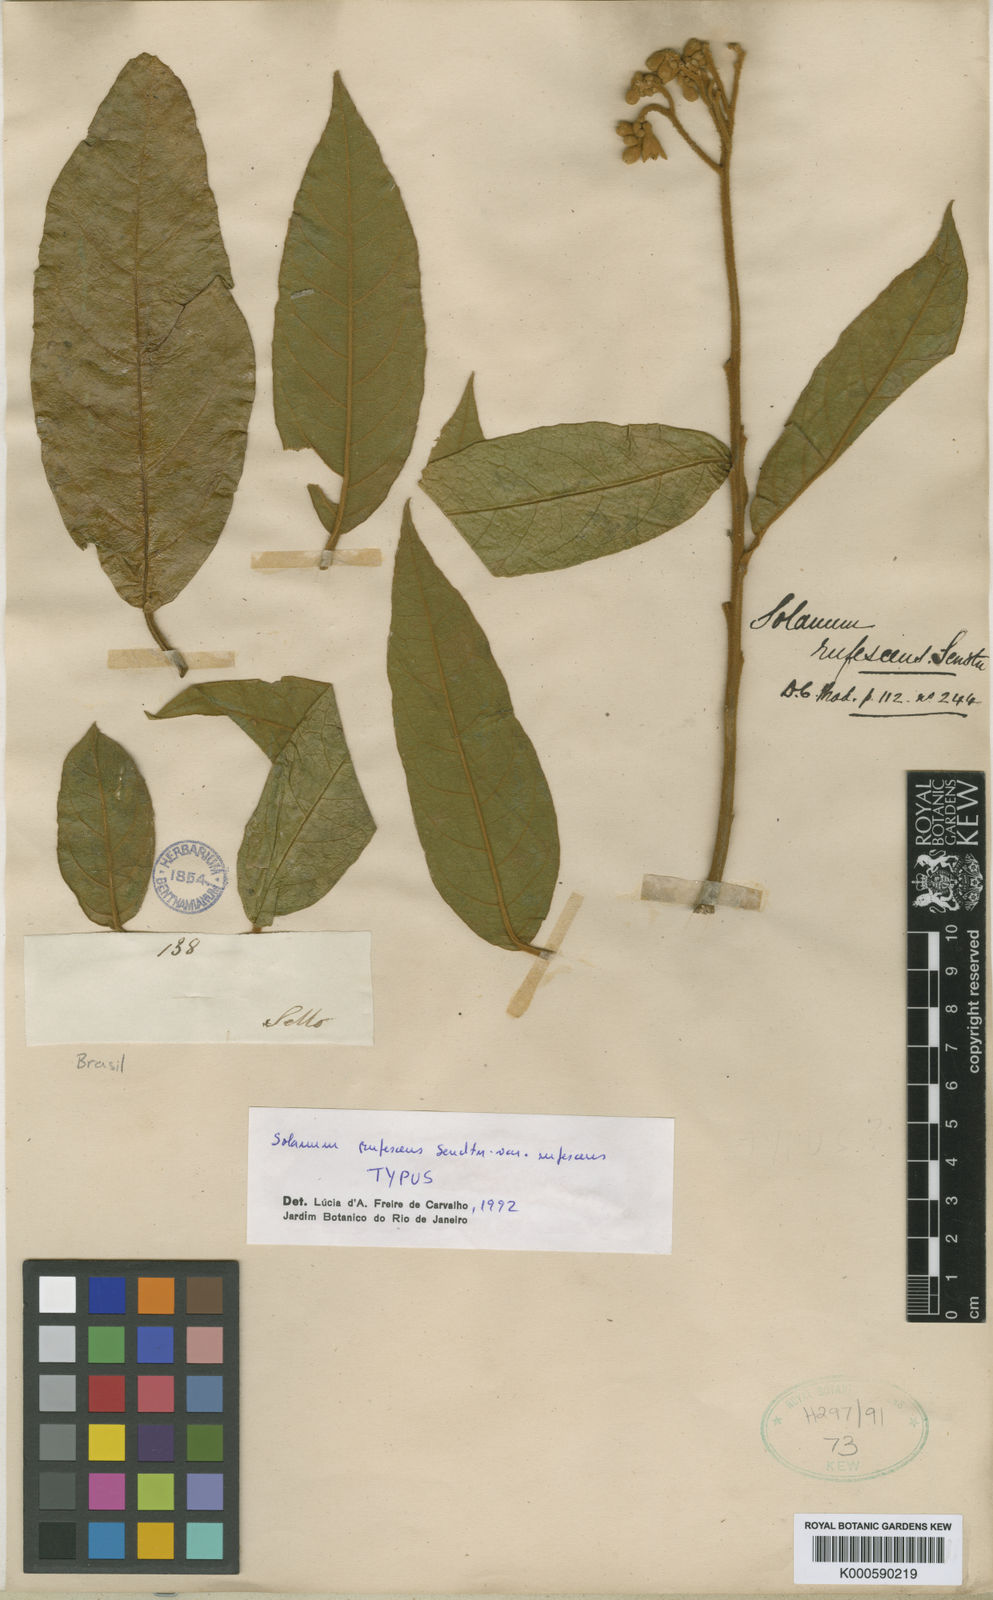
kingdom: Plantae
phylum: Tracheophyta
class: Magnoliopsida
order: Solanales
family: Solanaceae
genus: Solanum
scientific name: Solanum rufescens
